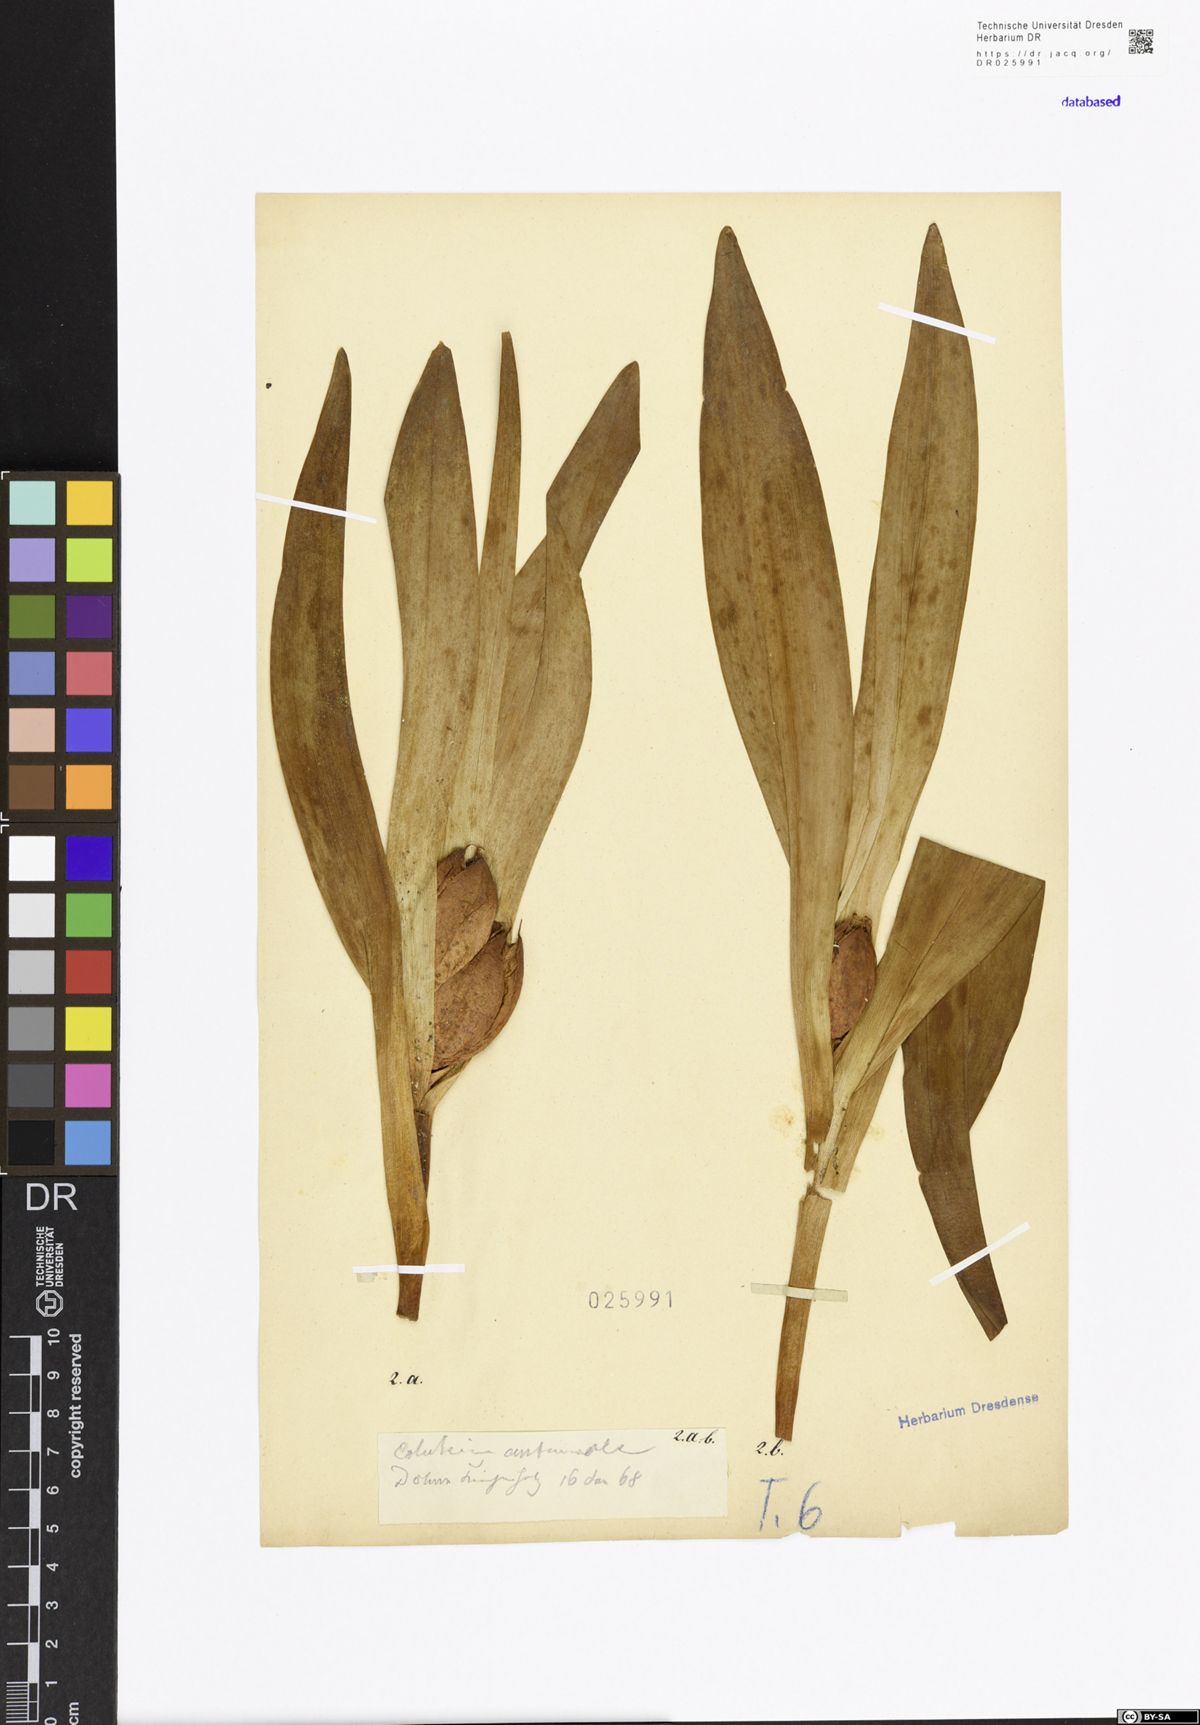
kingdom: Plantae
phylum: Tracheophyta
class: Liliopsida
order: Liliales
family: Colchicaceae
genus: Colchicum
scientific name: Colchicum autumnale
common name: Autumn crocus
